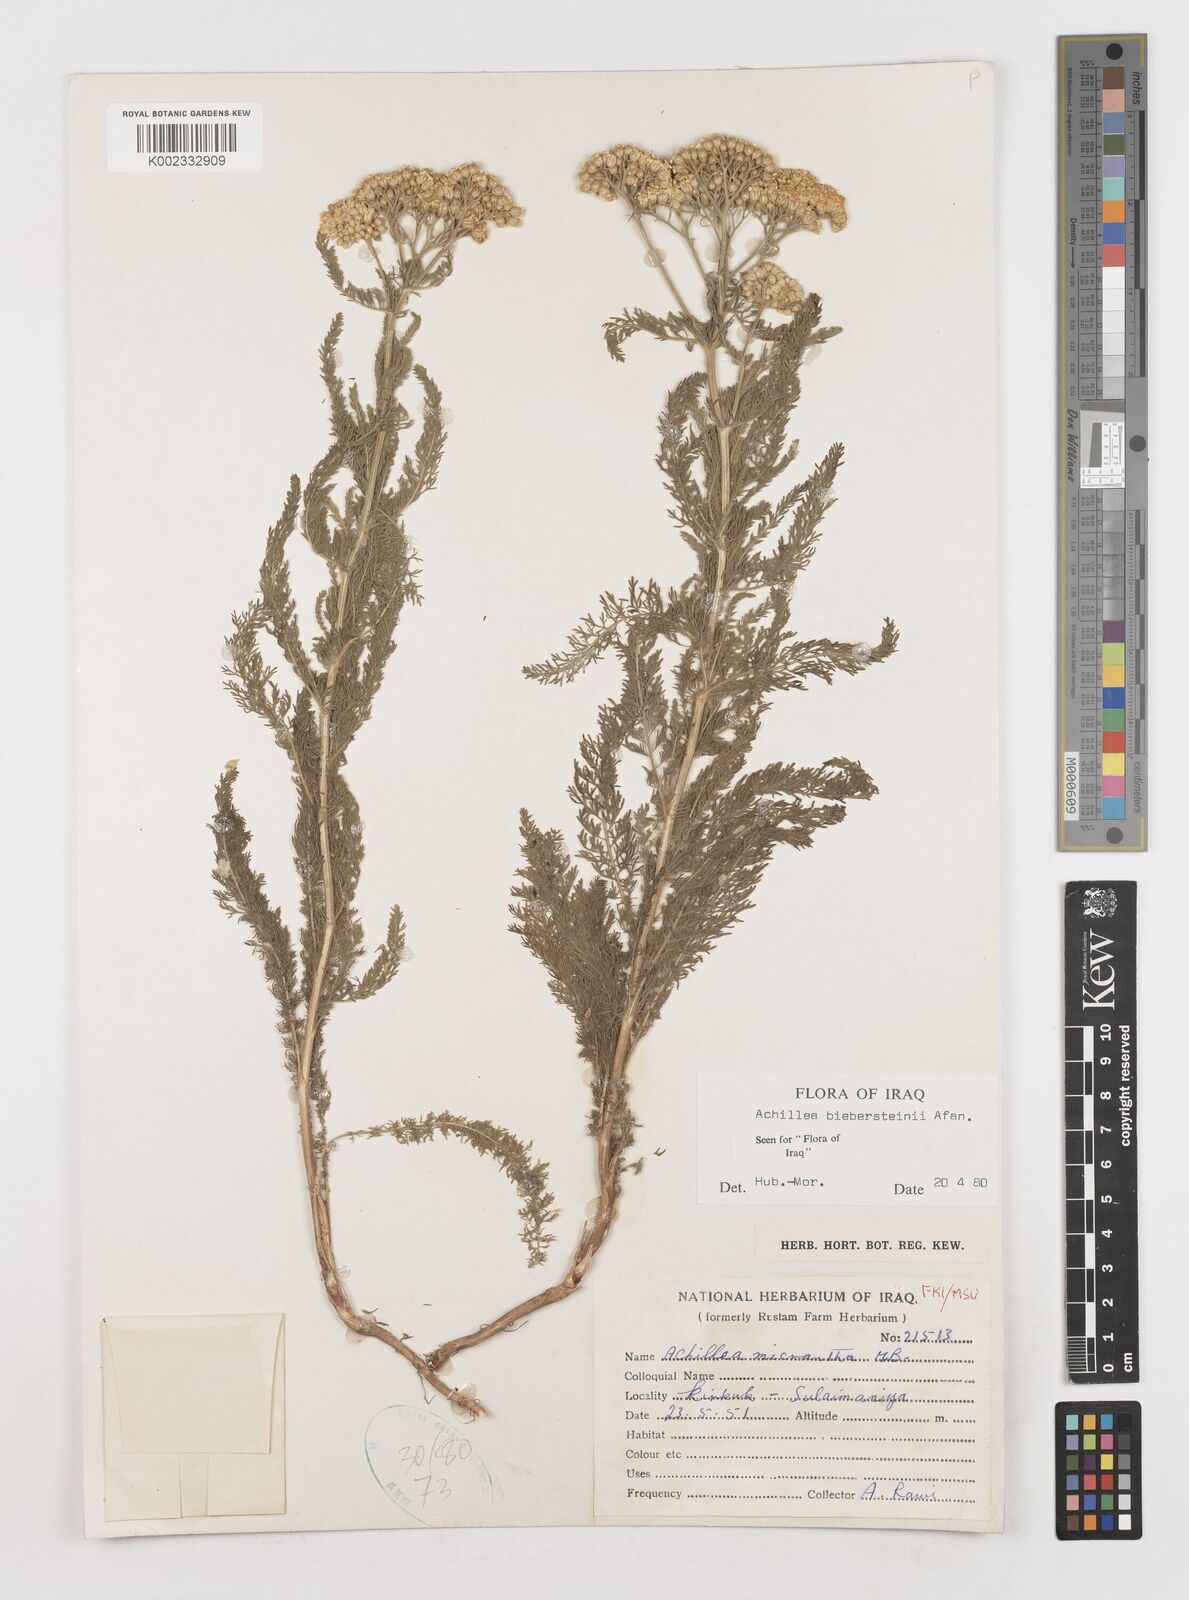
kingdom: Plantae
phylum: Tracheophyta
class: Magnoliopsida
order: Asterales
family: Asteraceae
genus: Achillea
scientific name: Achillea arabica
